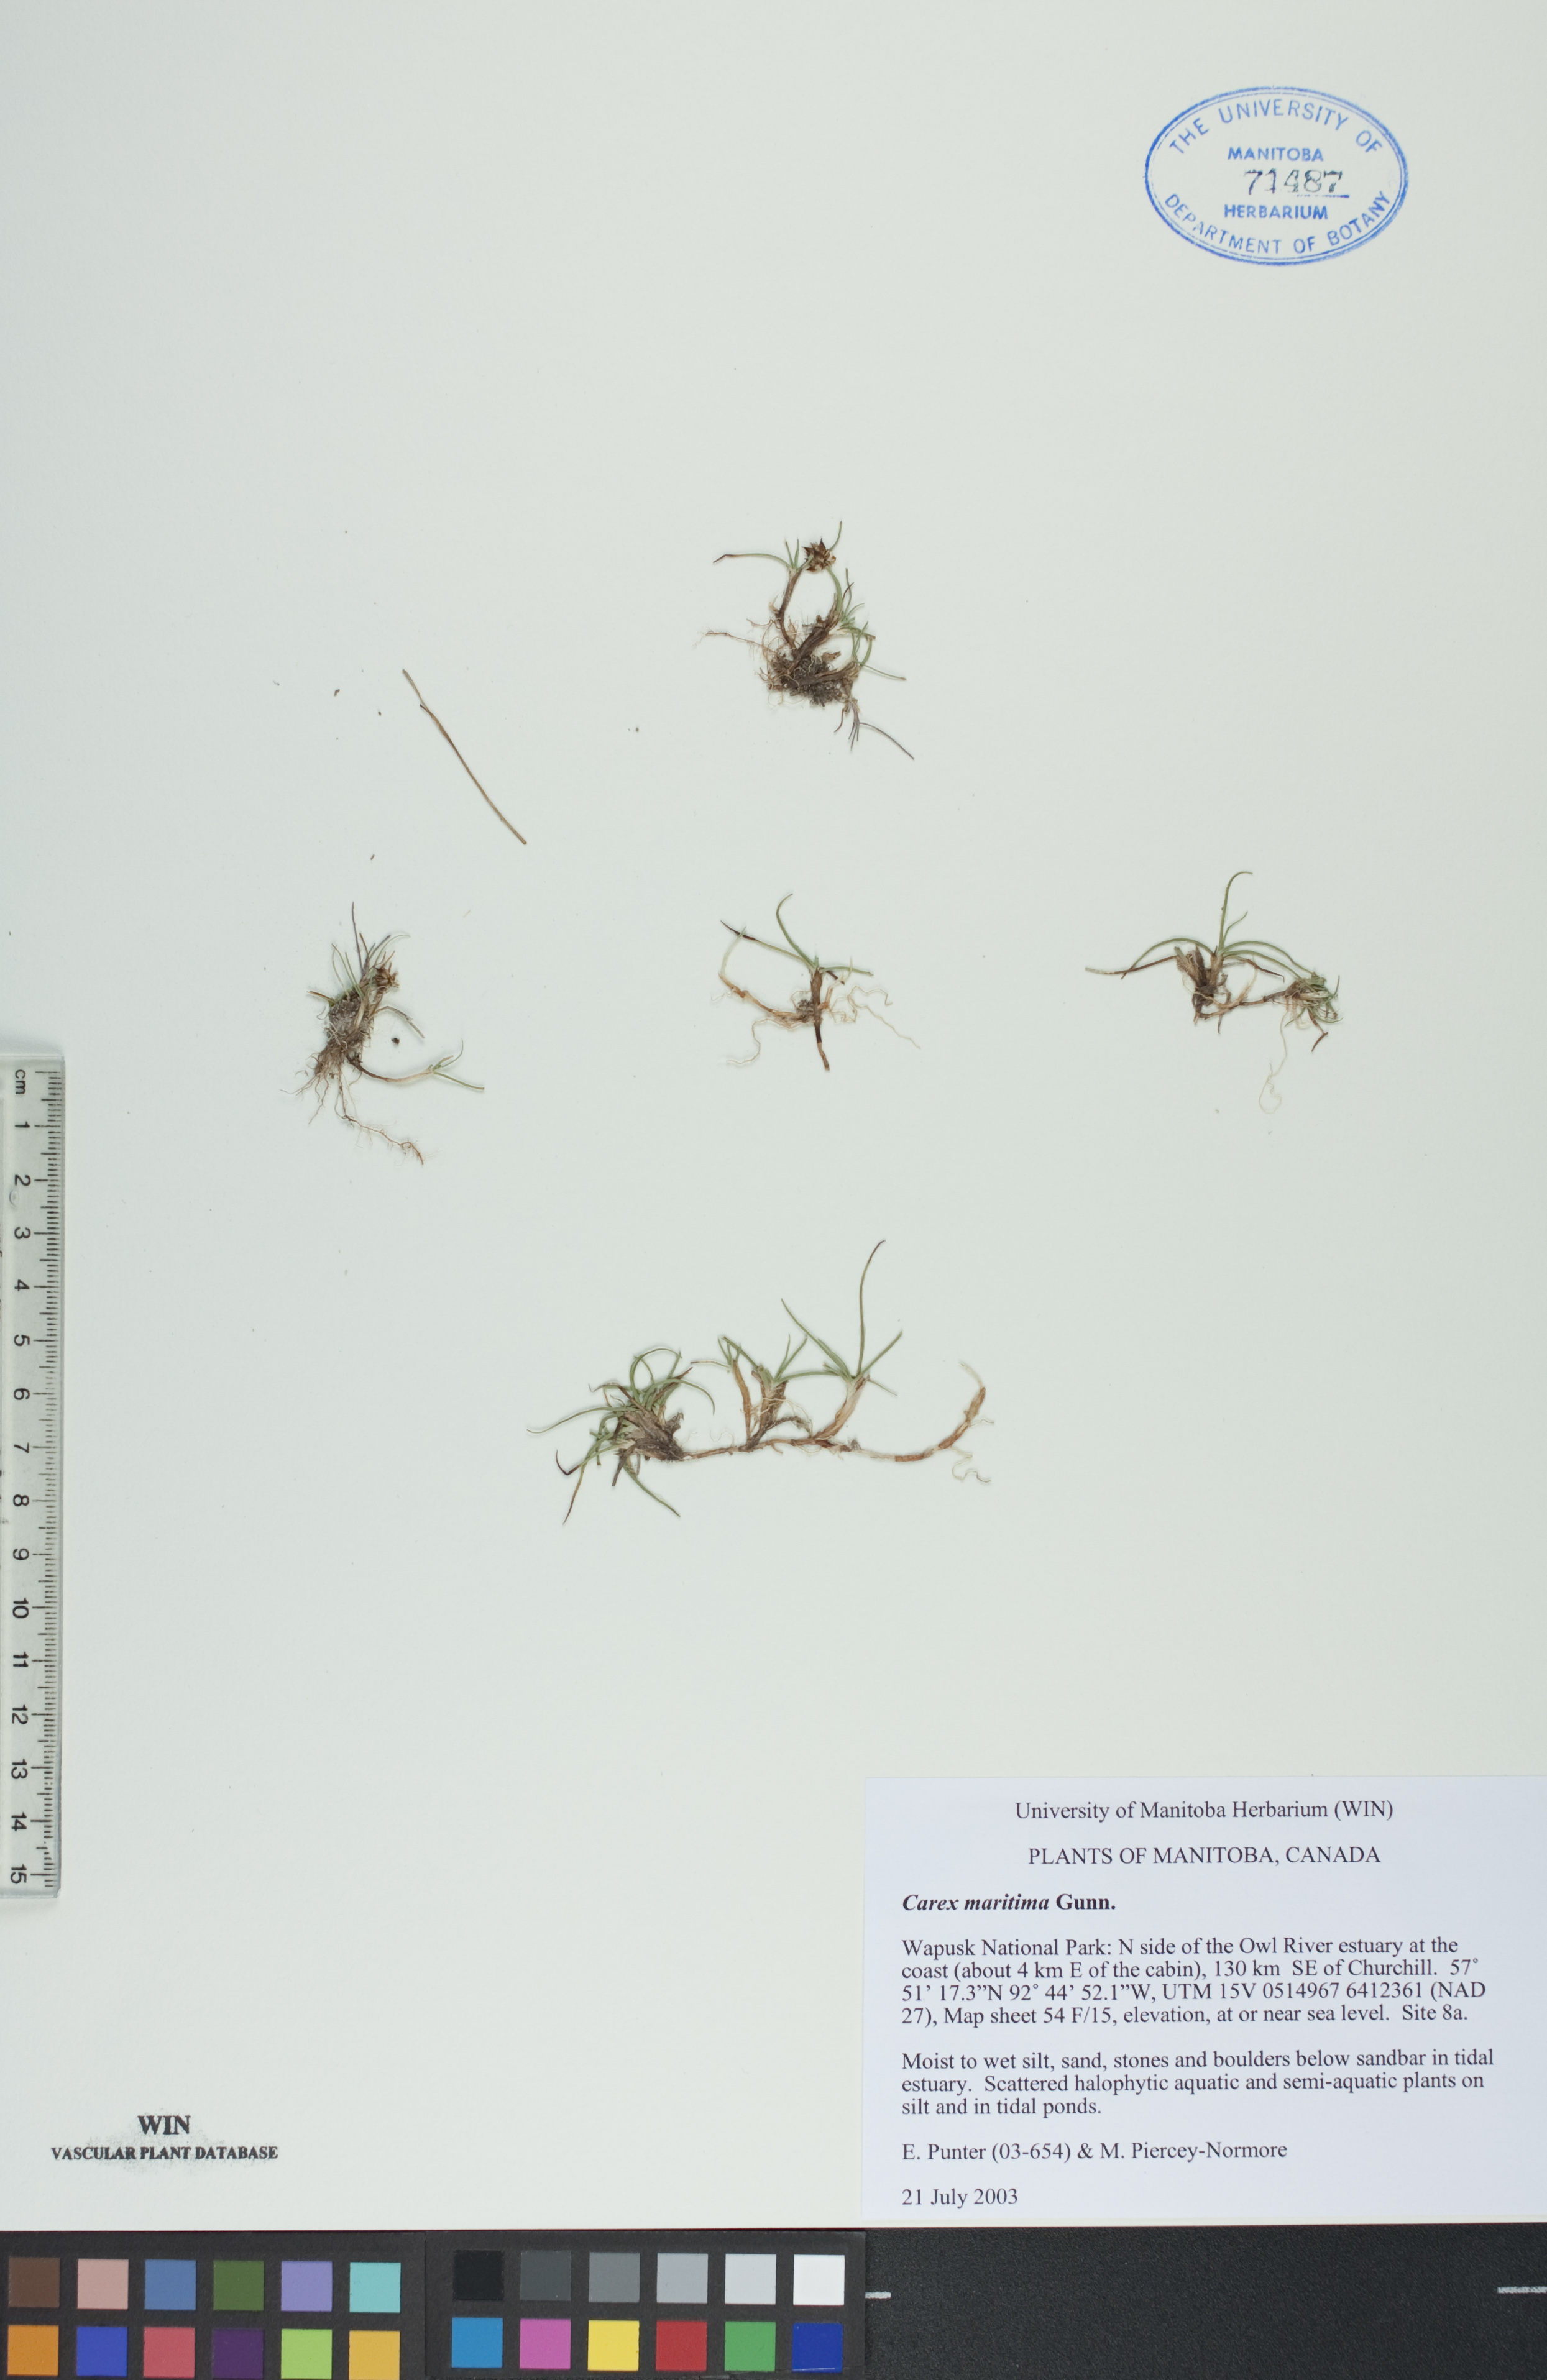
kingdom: Plantae
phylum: Tracheophyta
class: Liliopsida
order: Poales
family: Cyperaceae
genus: Carex
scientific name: Carex maritima
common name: Curved sedge
